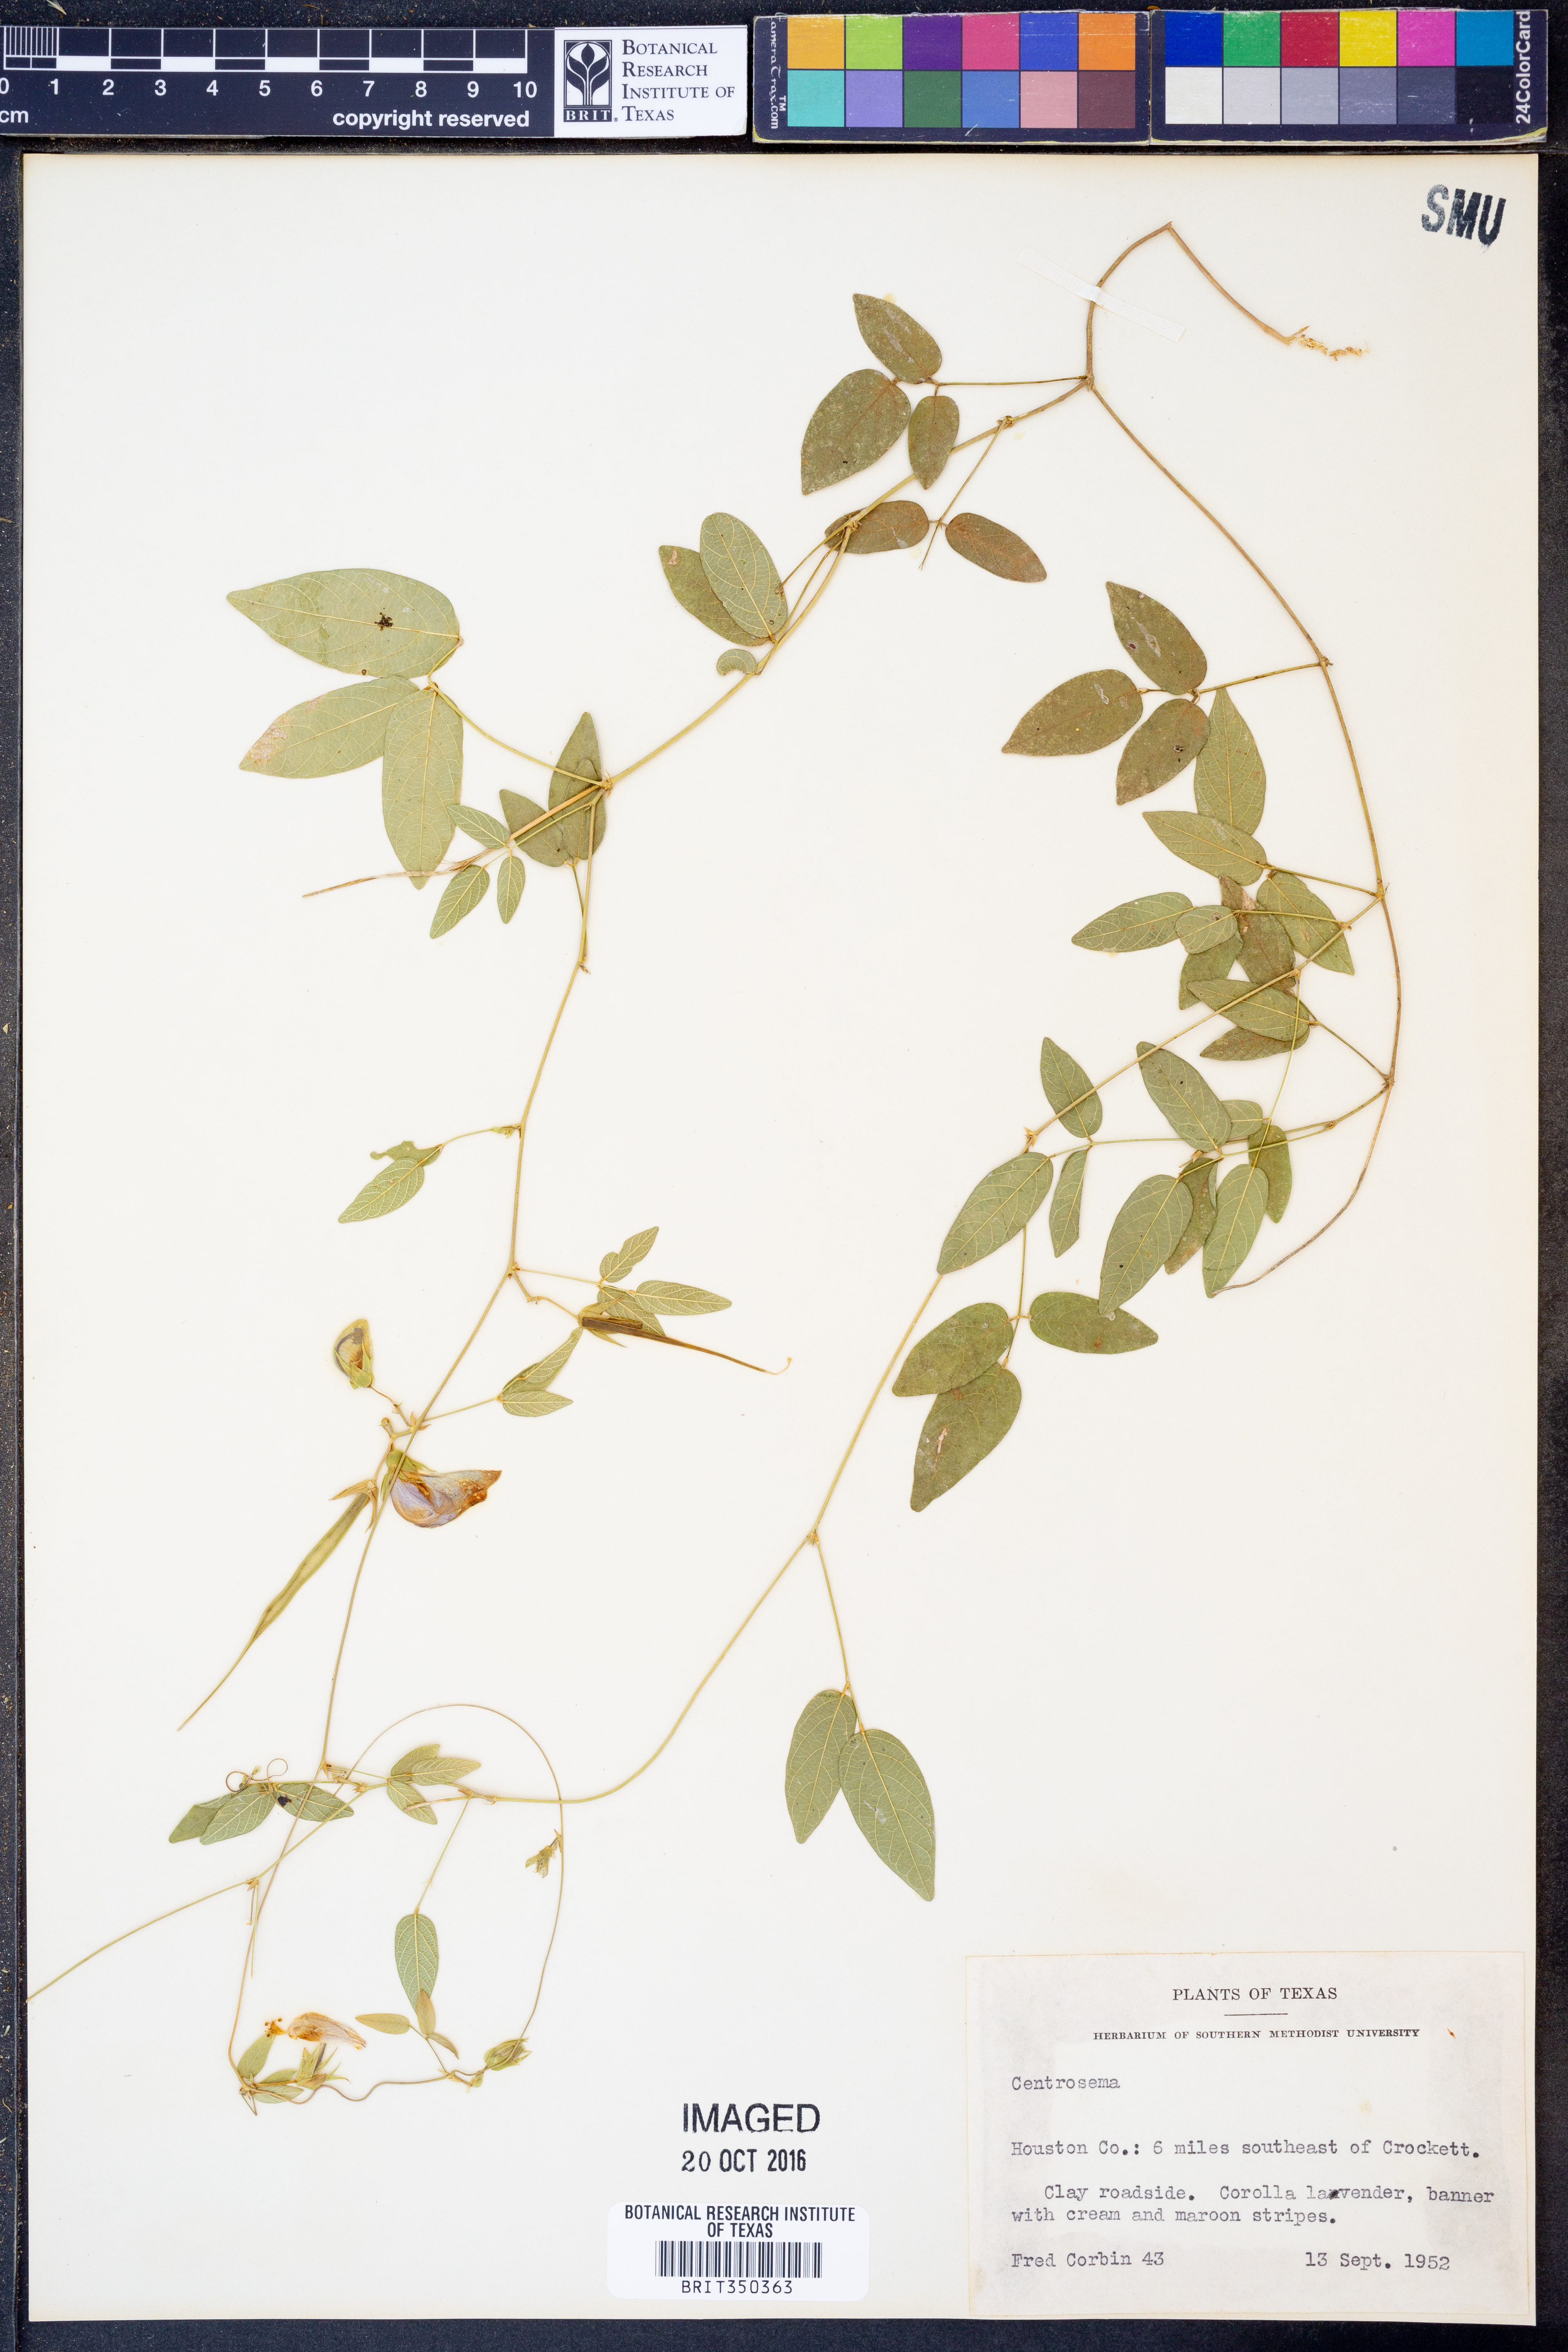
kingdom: Plantae
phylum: Tracheophyta
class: Magnoliopsida
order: Fabales
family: Fabaceae
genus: Centrosema
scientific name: Centrosema
